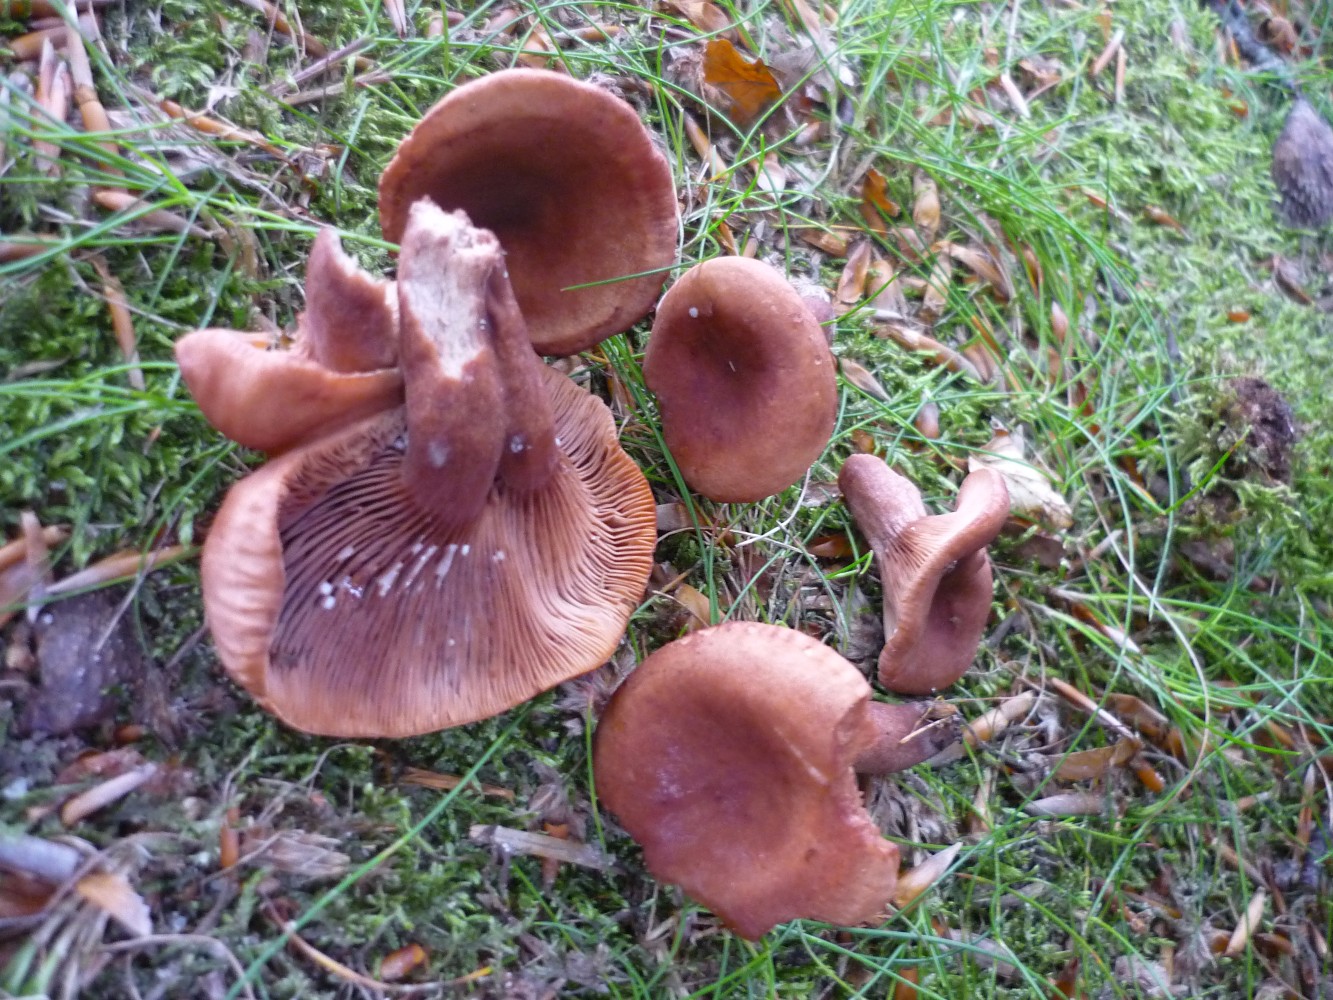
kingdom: Fungi
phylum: Basidiomycota
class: Agaricomycetes
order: Russulales
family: Russulaceae
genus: Lactarius
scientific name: Lactarius camphoratus
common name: kamfer-mælkehat
